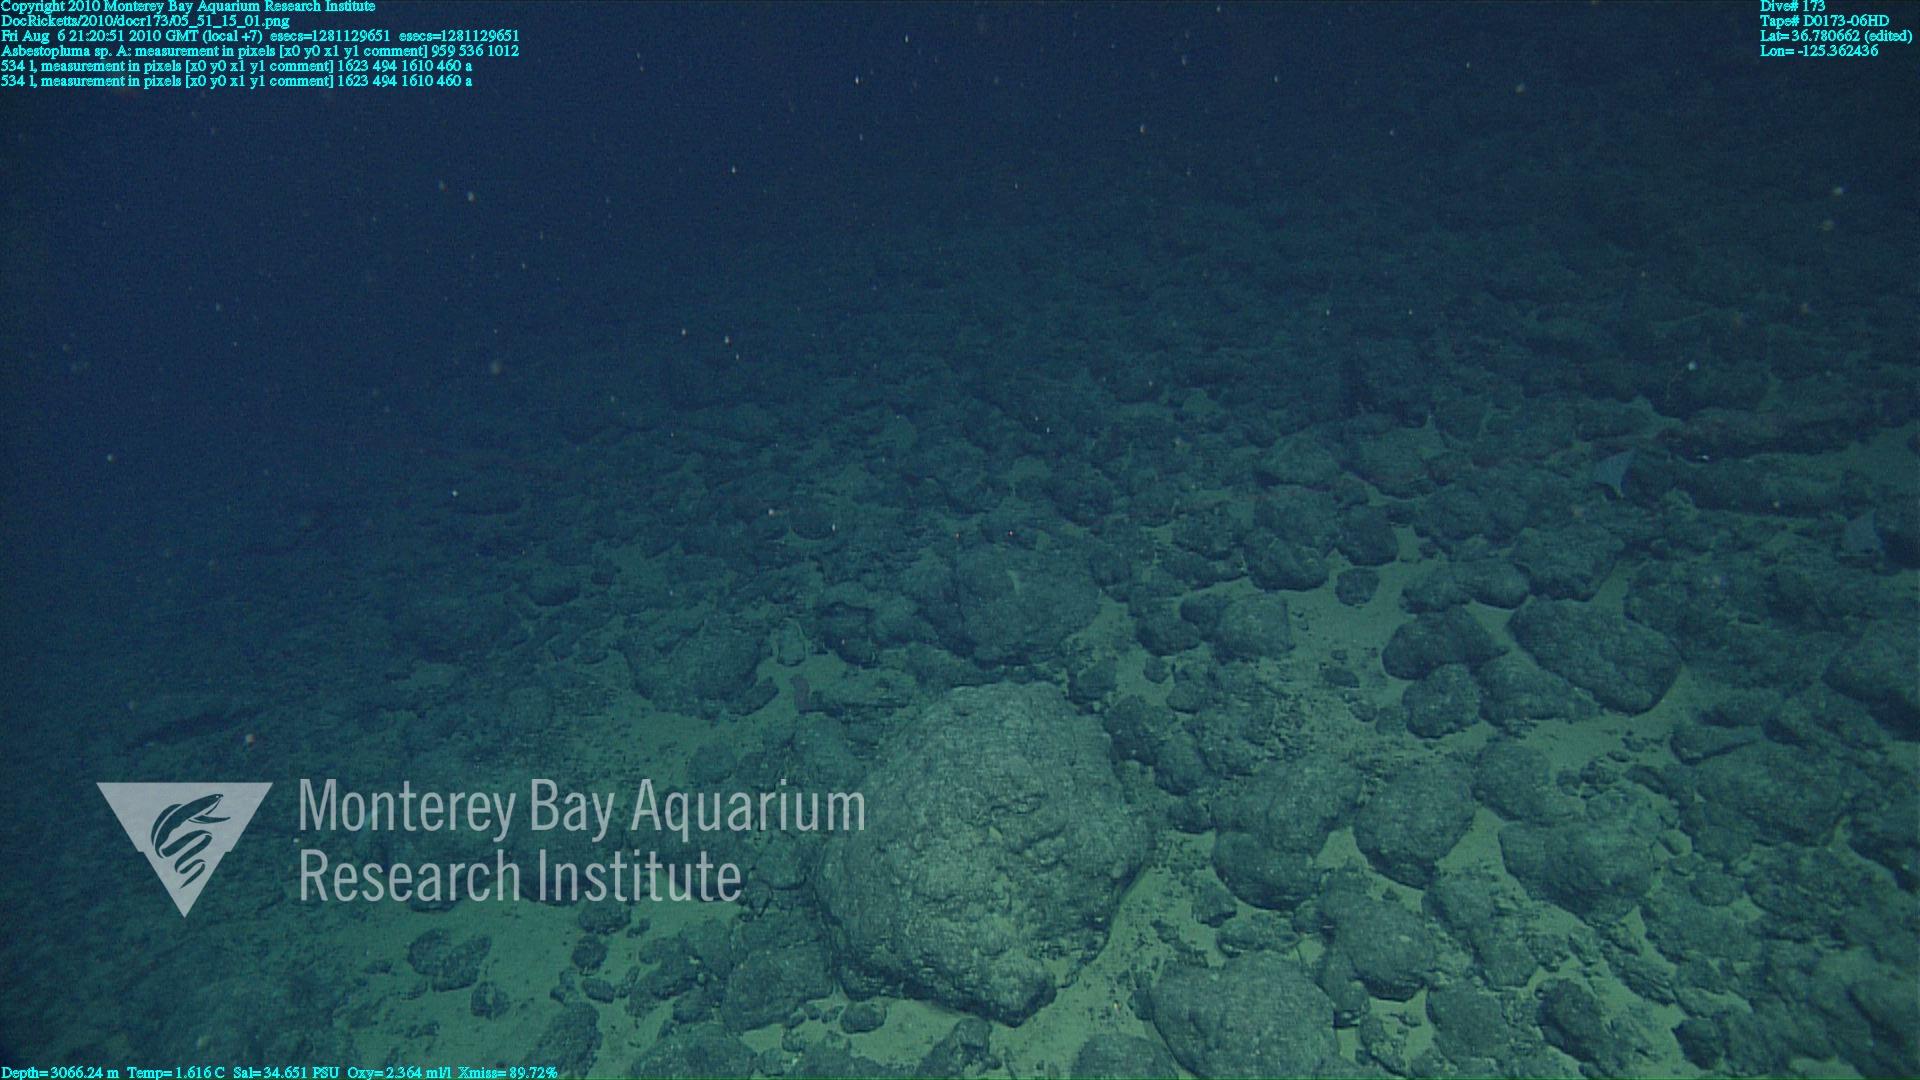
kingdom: Animalia
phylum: Porifera
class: Demospongiae
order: Poecilosclerida
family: Cladorhizidae
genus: Asbestopluma
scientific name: Asbestopluma
